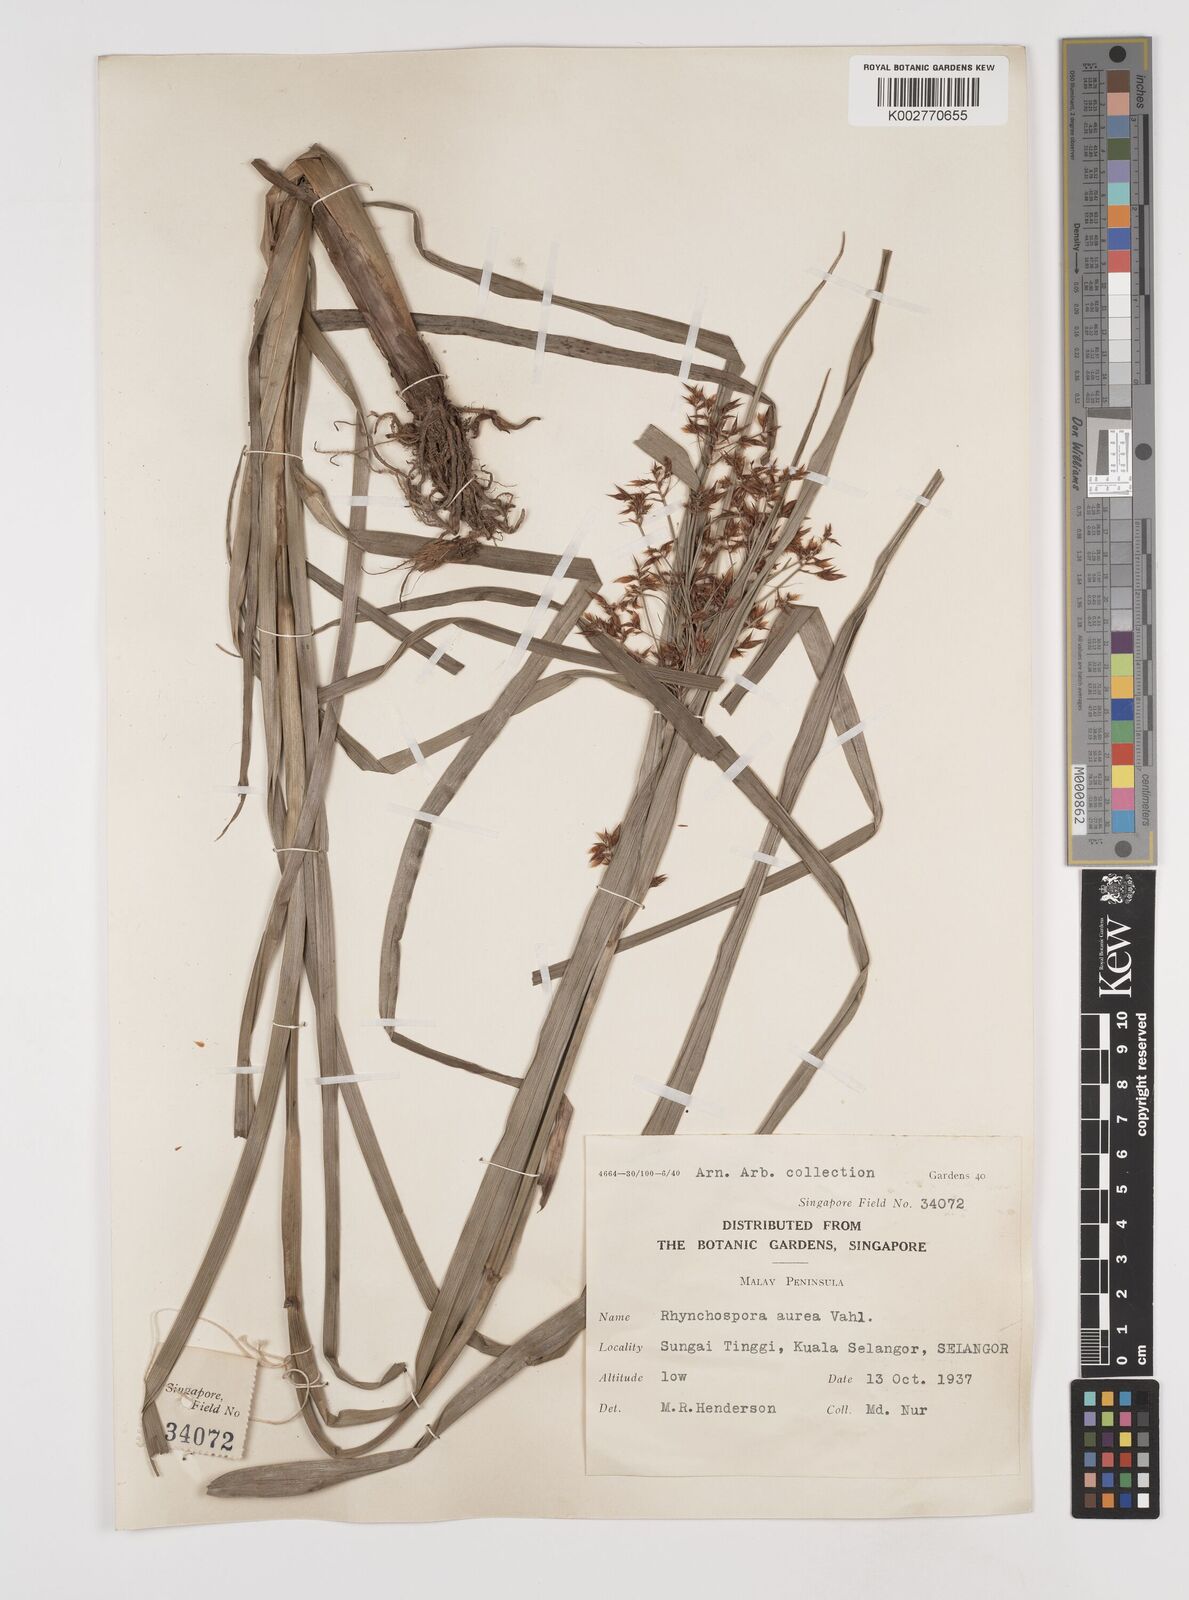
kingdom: Plantae
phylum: Tracheophyta
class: Liliopsida
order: Poales
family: Cyperaceae
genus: Rhynchospora
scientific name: Rhynchospora corymbosa
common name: Golden beak sedge
